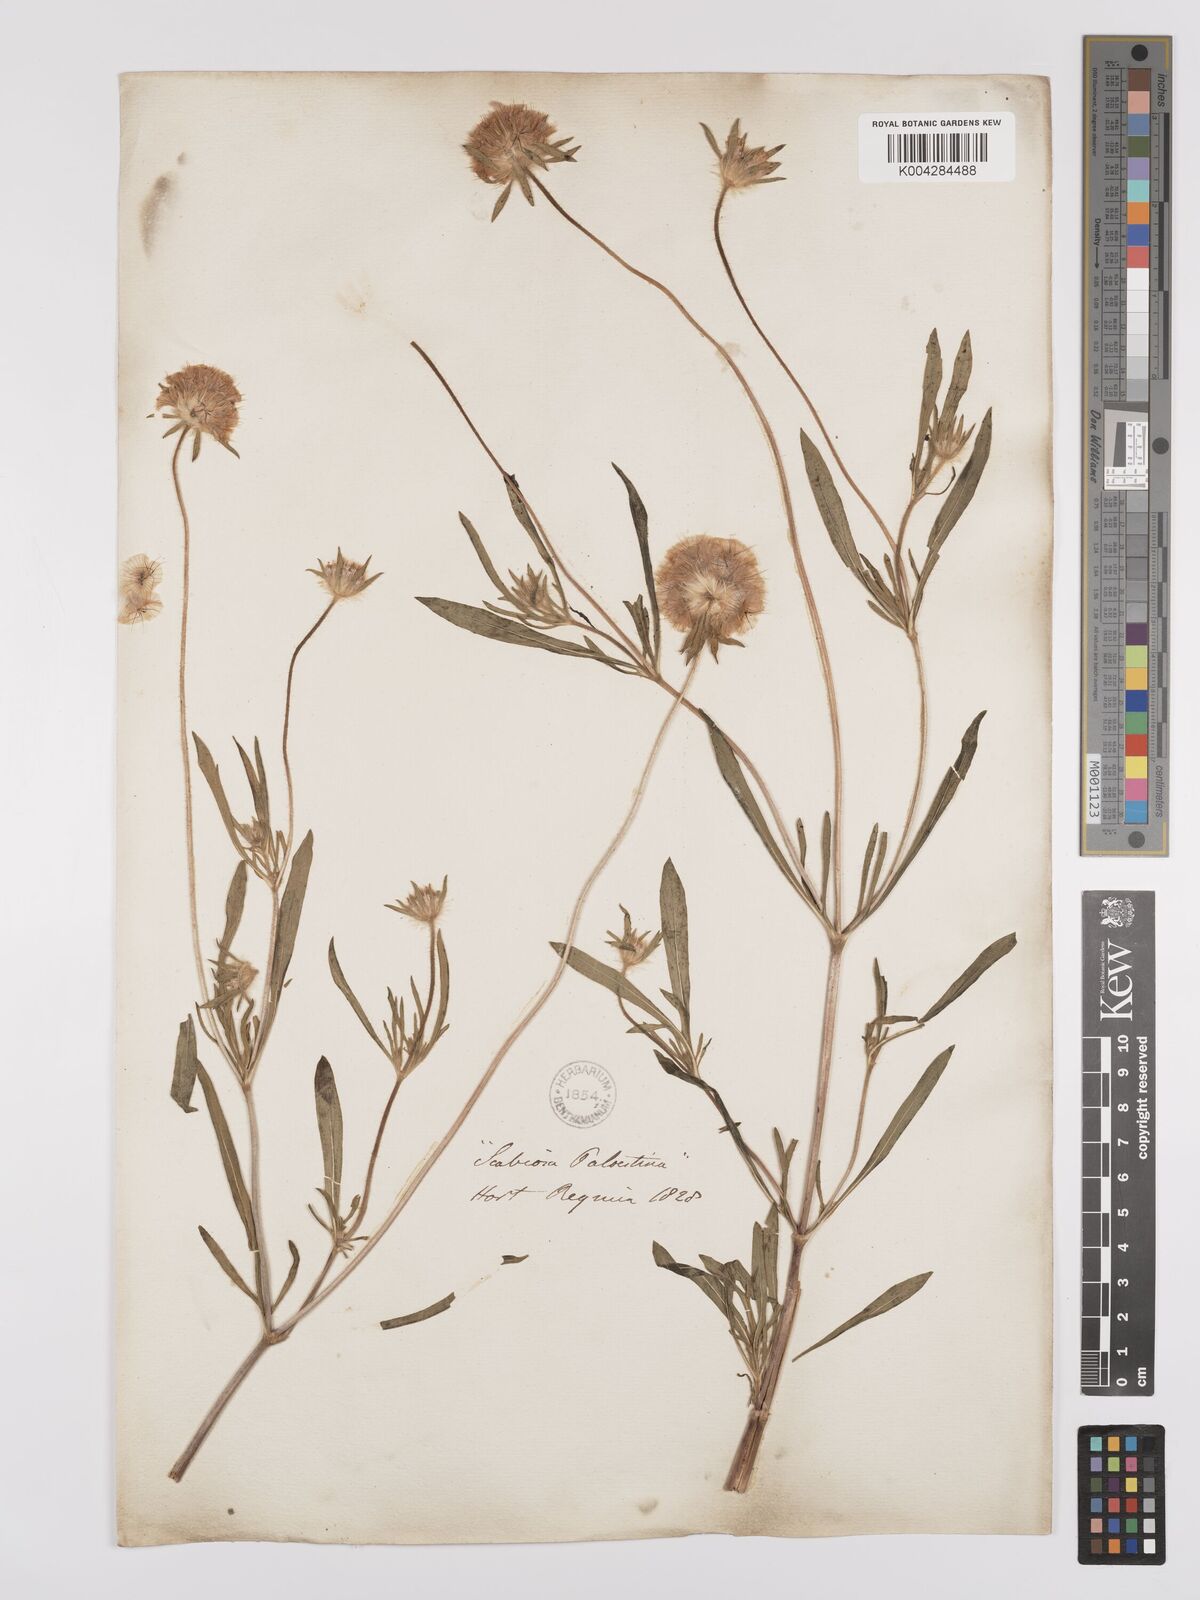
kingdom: Plantae
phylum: Tracheophyta
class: Magnoliopsida
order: Dipsacales
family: Caprifoliaceae
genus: Lomelosia
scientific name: Lomelosia palaestina
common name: Balkan pincushions
